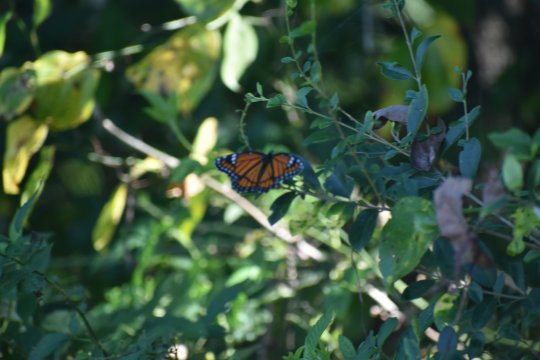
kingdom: Animalia
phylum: Arthropoda
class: Insecta
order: Lepidoptera
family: Nymphalidae
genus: Limenitis
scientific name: Limenitis archippus
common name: Viceroy
